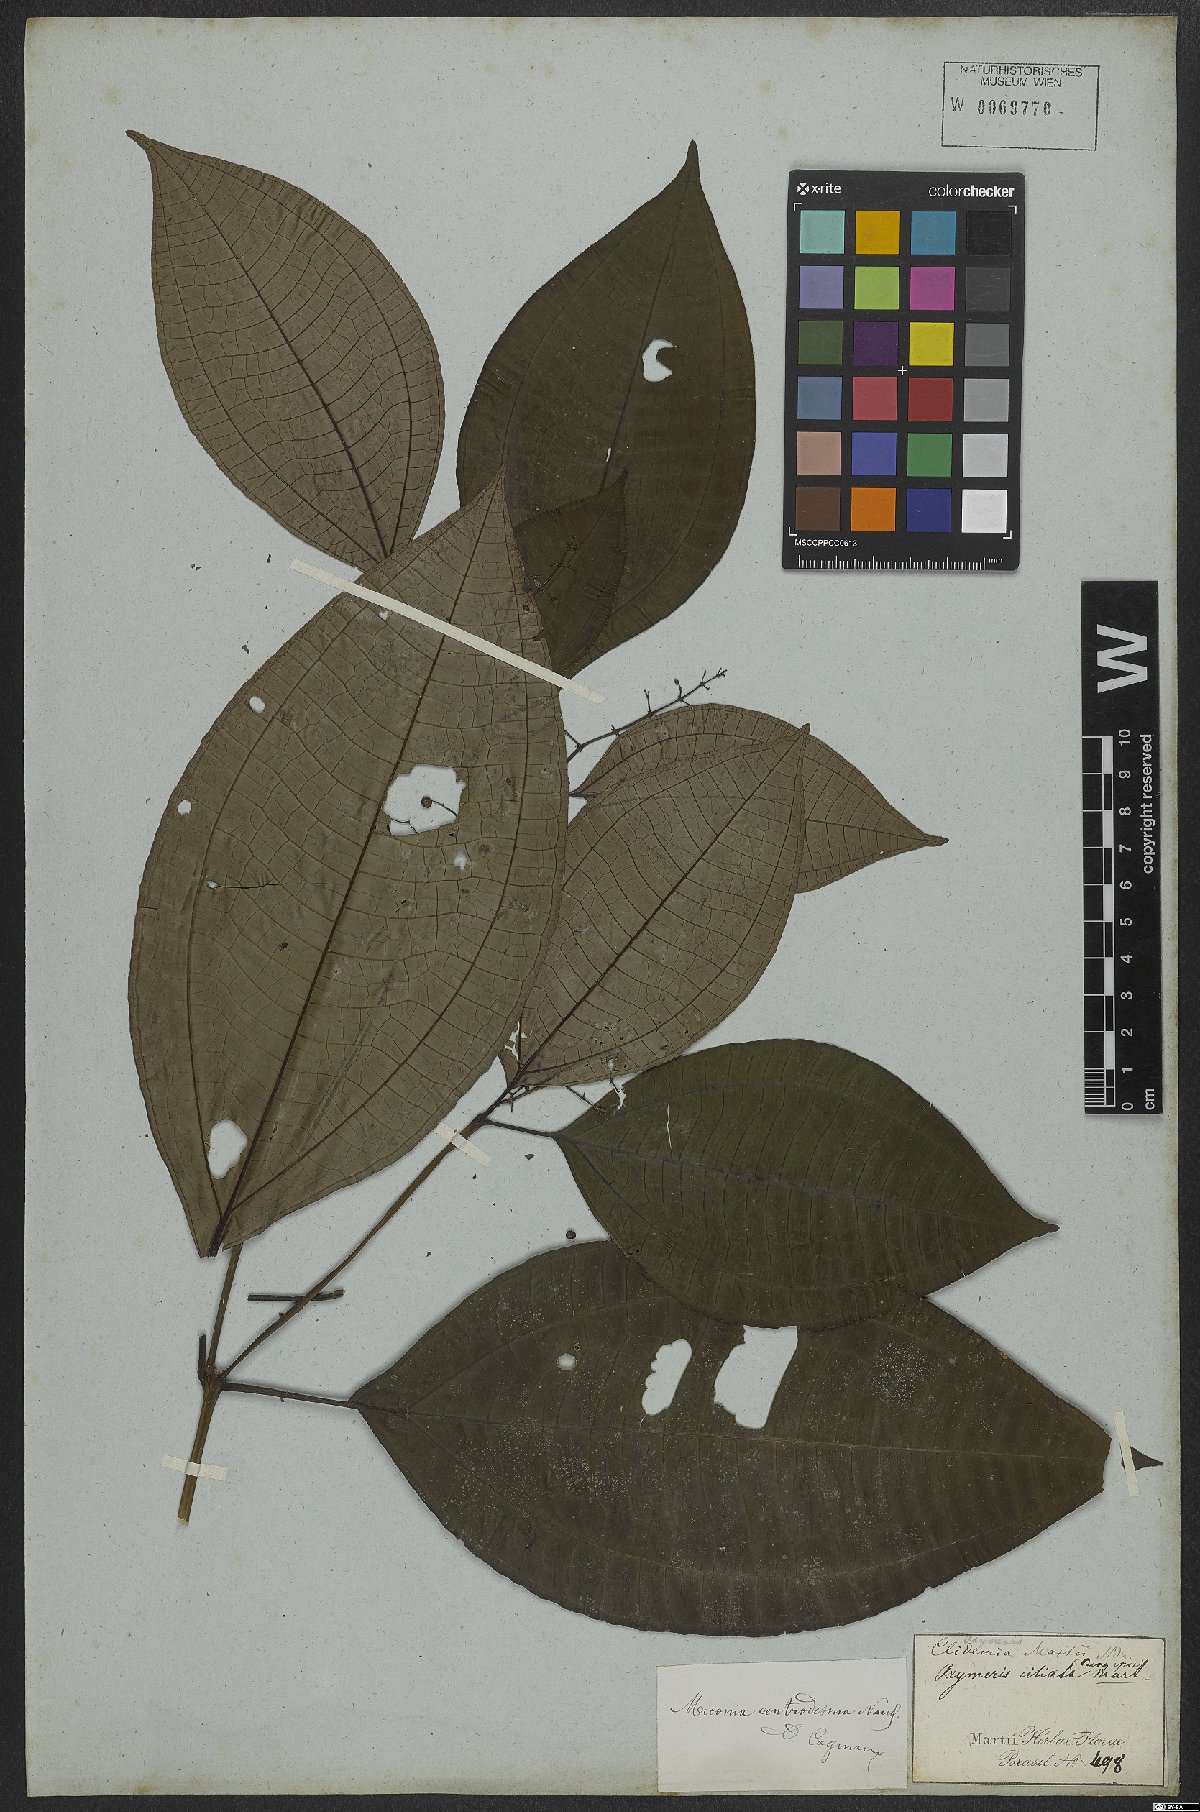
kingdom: Plantae
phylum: Tracheophyta
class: Magnoliopsida
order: Myrtales
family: Melastomataceae
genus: Miconia
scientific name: Miconia centrodesma
